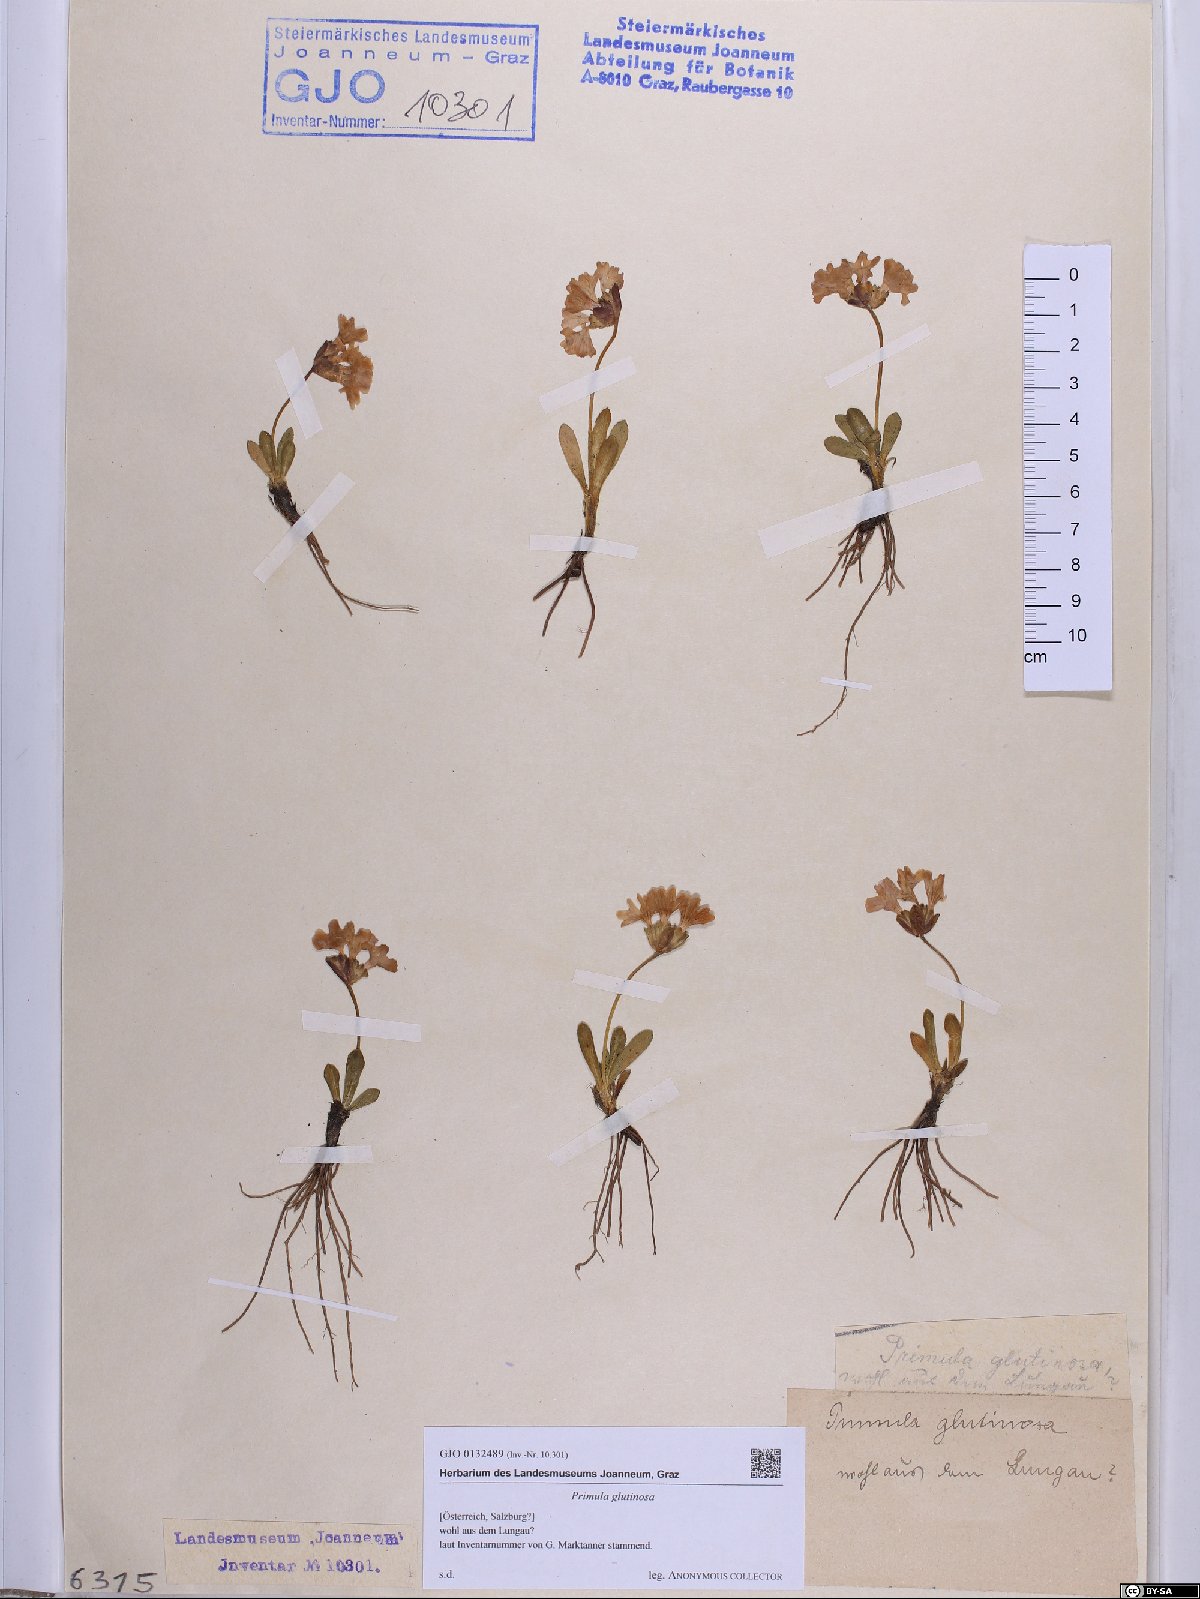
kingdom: Plantae
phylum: Tracheophyta
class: Magnoliopsida
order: Ericales
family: Primulaceae
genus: Primula
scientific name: Primula glutinosa
